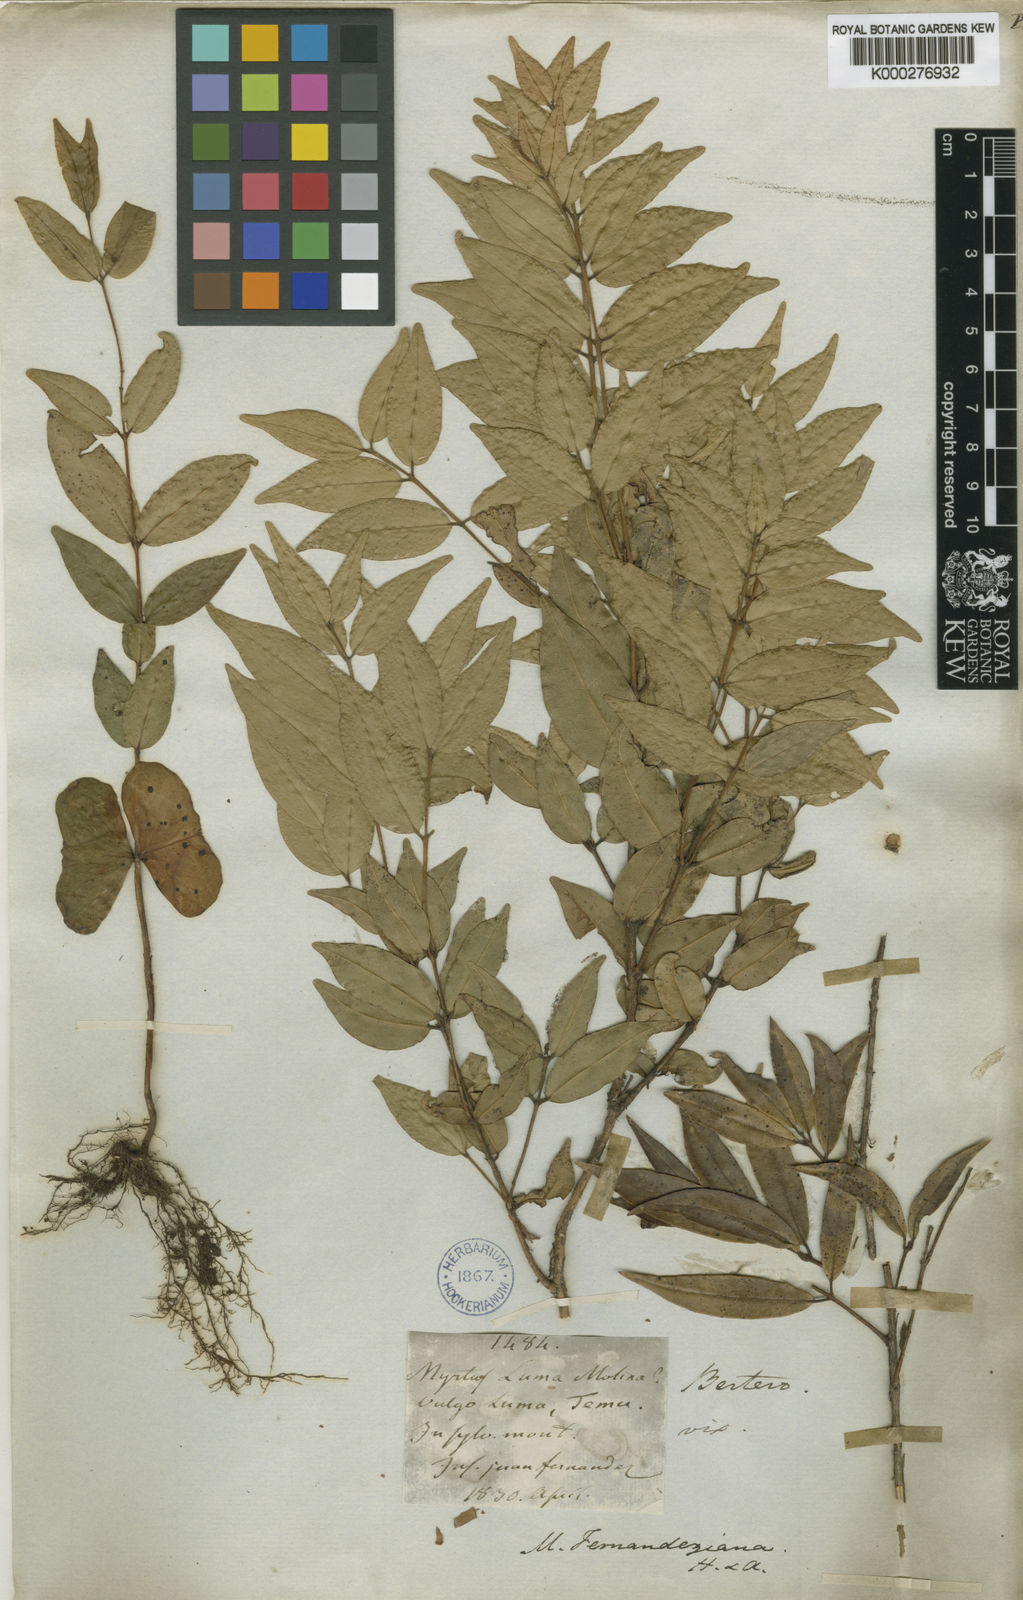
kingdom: Plantae
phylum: Tracheophyta
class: Magnoliopsida
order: Myrtales
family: Myrtaceae
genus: Nothomyrcia
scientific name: Nothomyrcia fernandeziana
